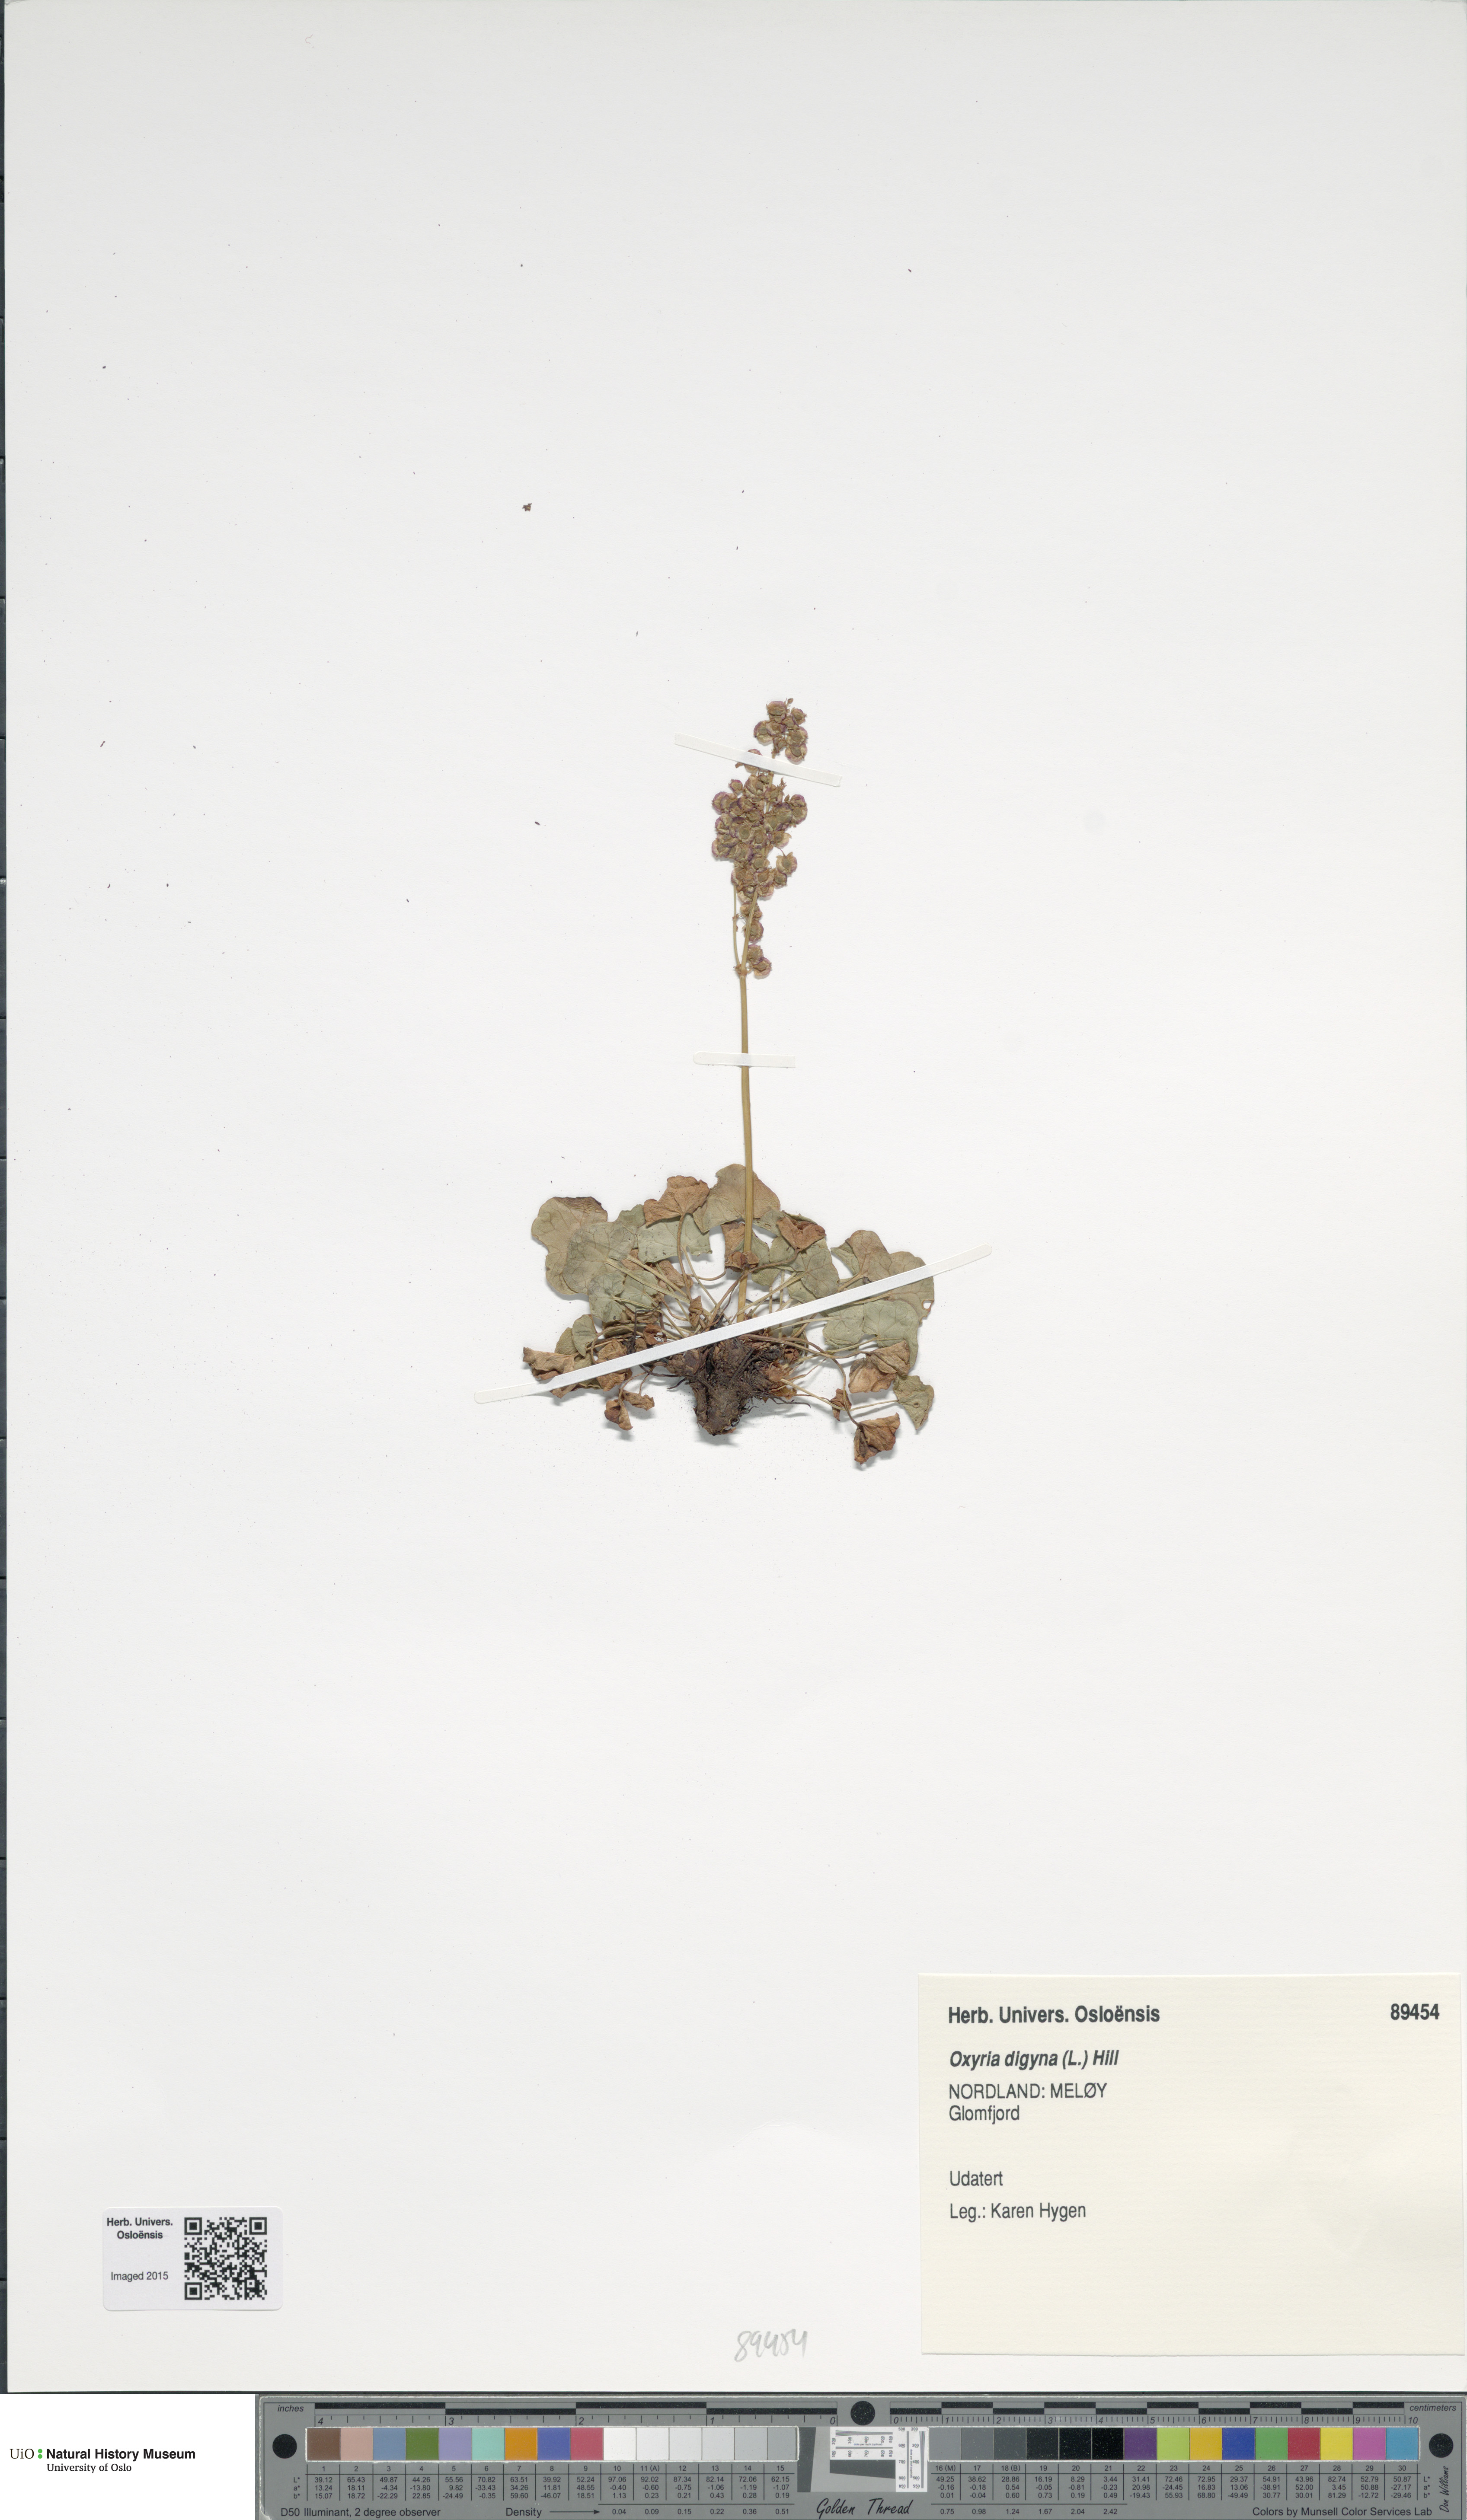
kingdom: Plantae
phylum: Tracheophyta
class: Magnoliopsida
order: Caryophyllales
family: Polygonaceae
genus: Oxyria
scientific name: Oxyria digyna
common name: Alpine mountain-sorrel
